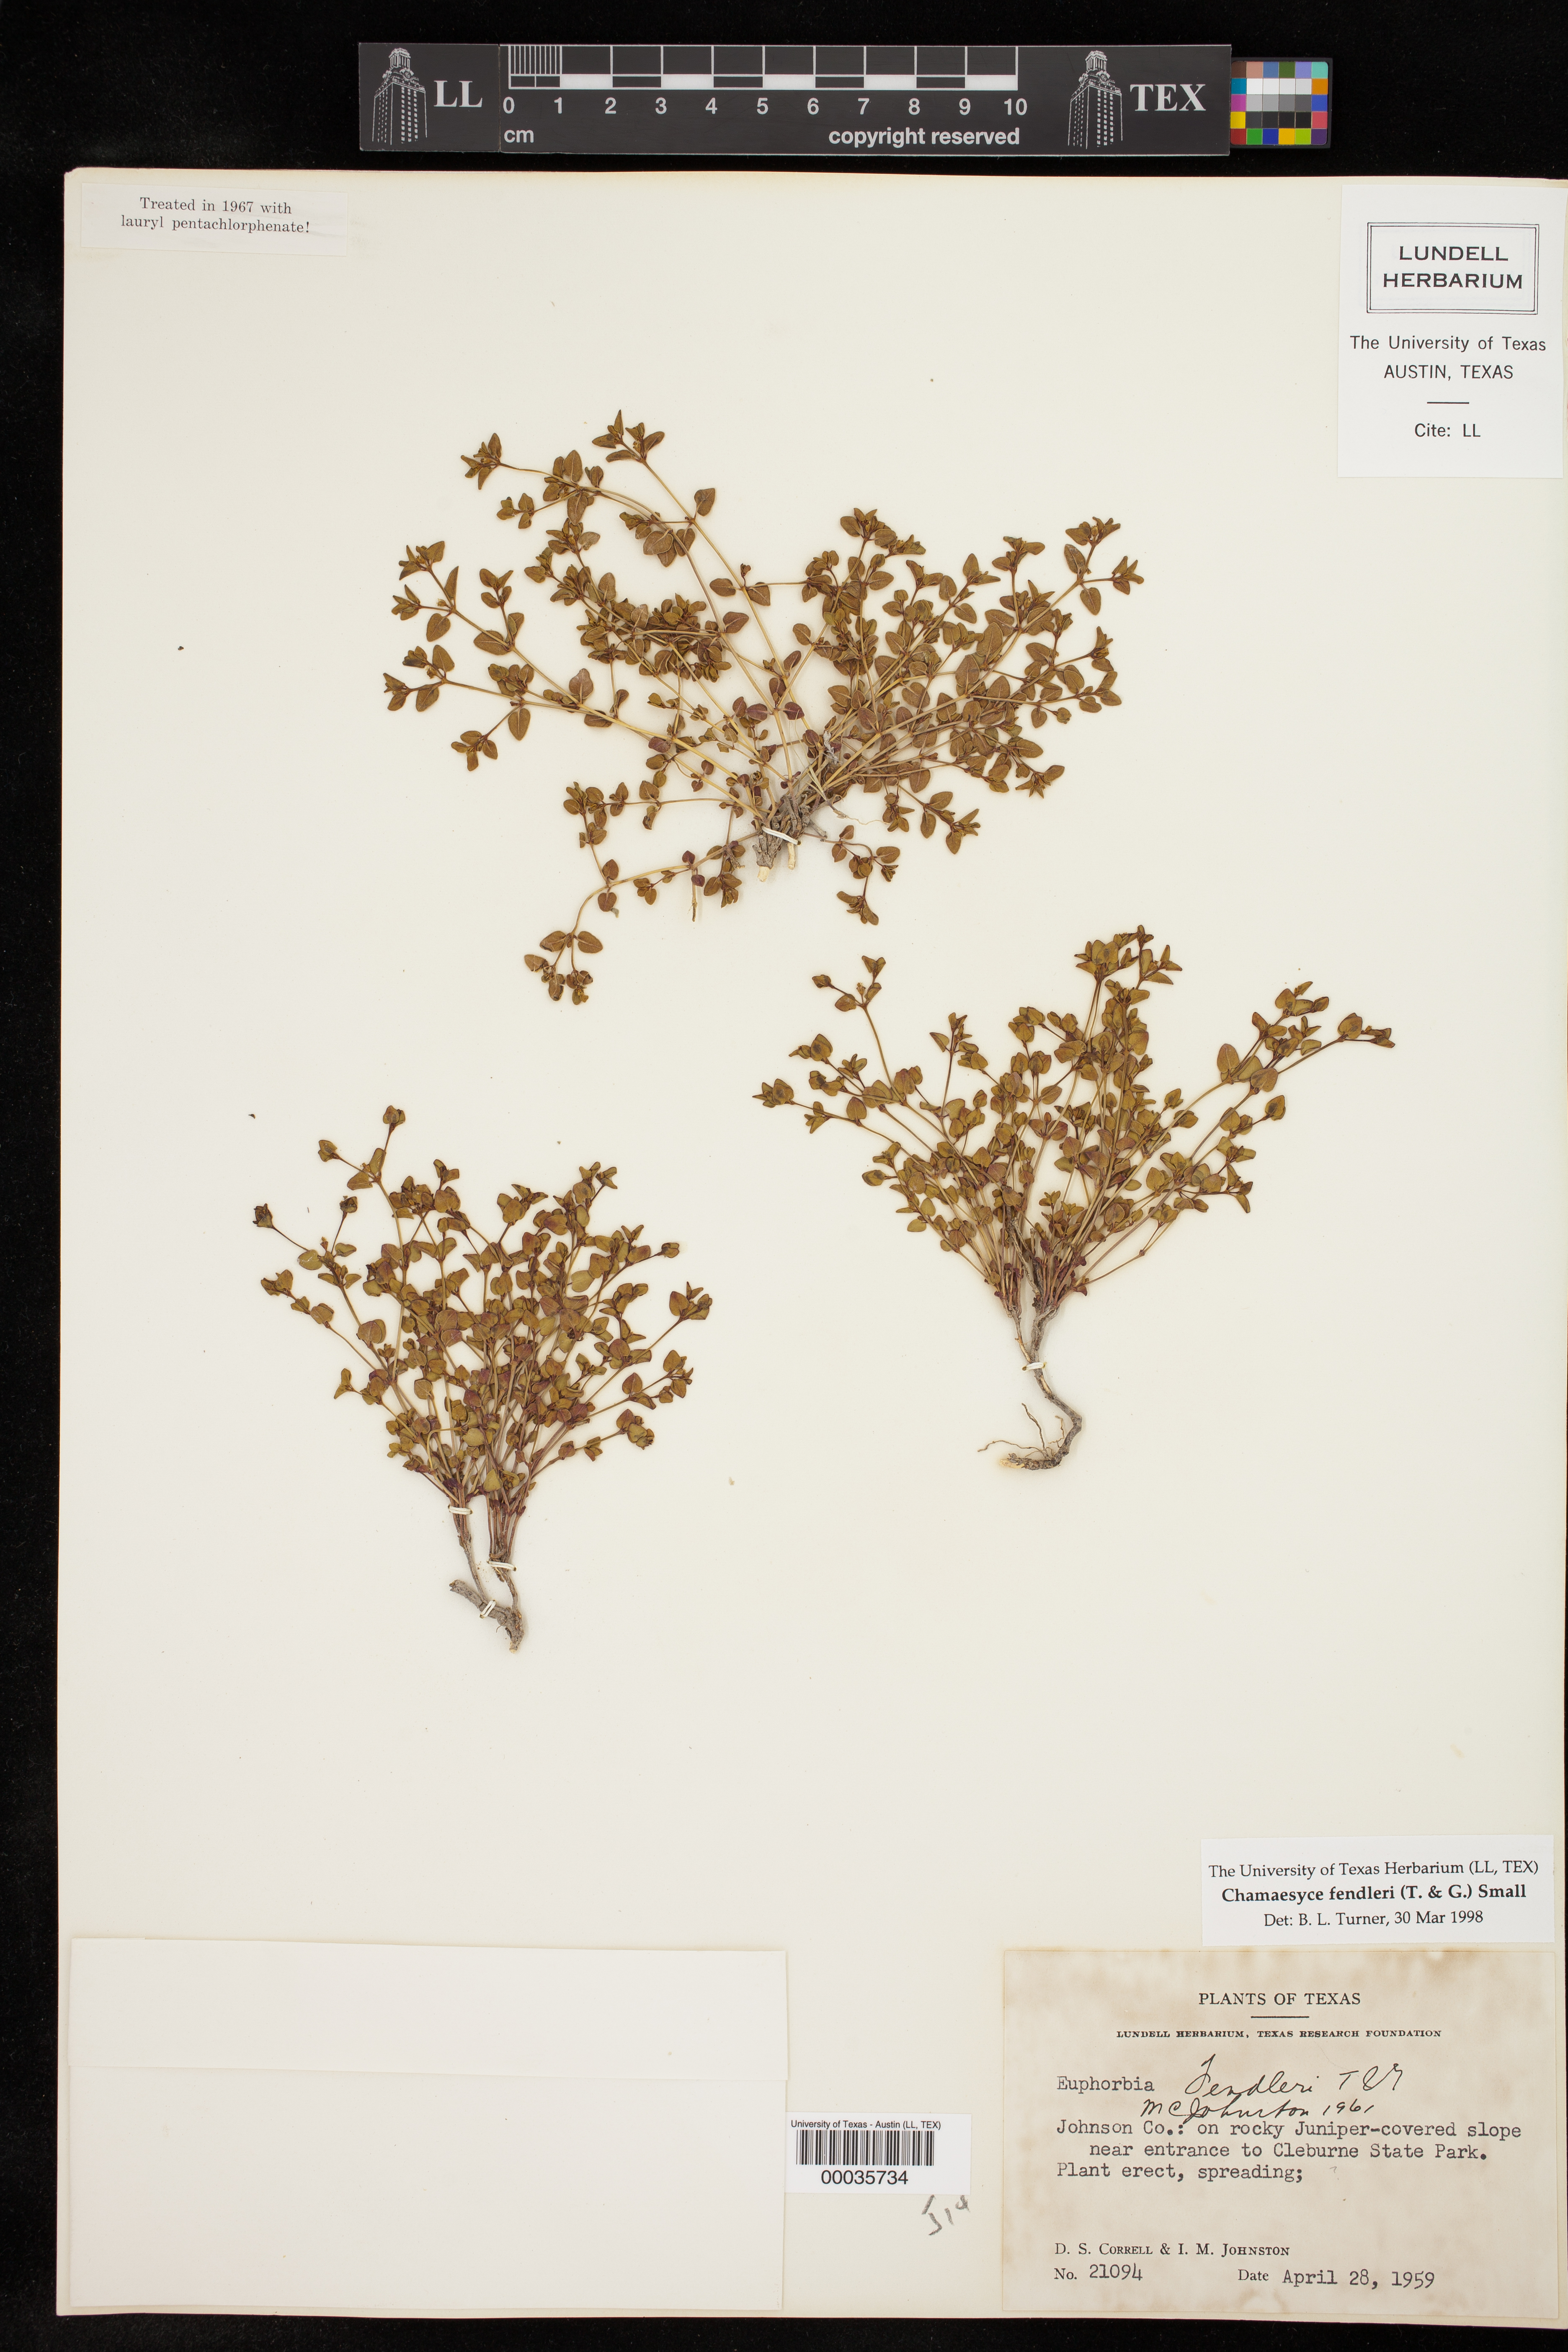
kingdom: Plantae
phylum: Tracheophyta
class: Magnoliopsida
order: Malpighiales
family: Euphorbiaceae
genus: Euphorbia
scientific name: Euphorbia fendleri
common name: Fendler's euphorbia
